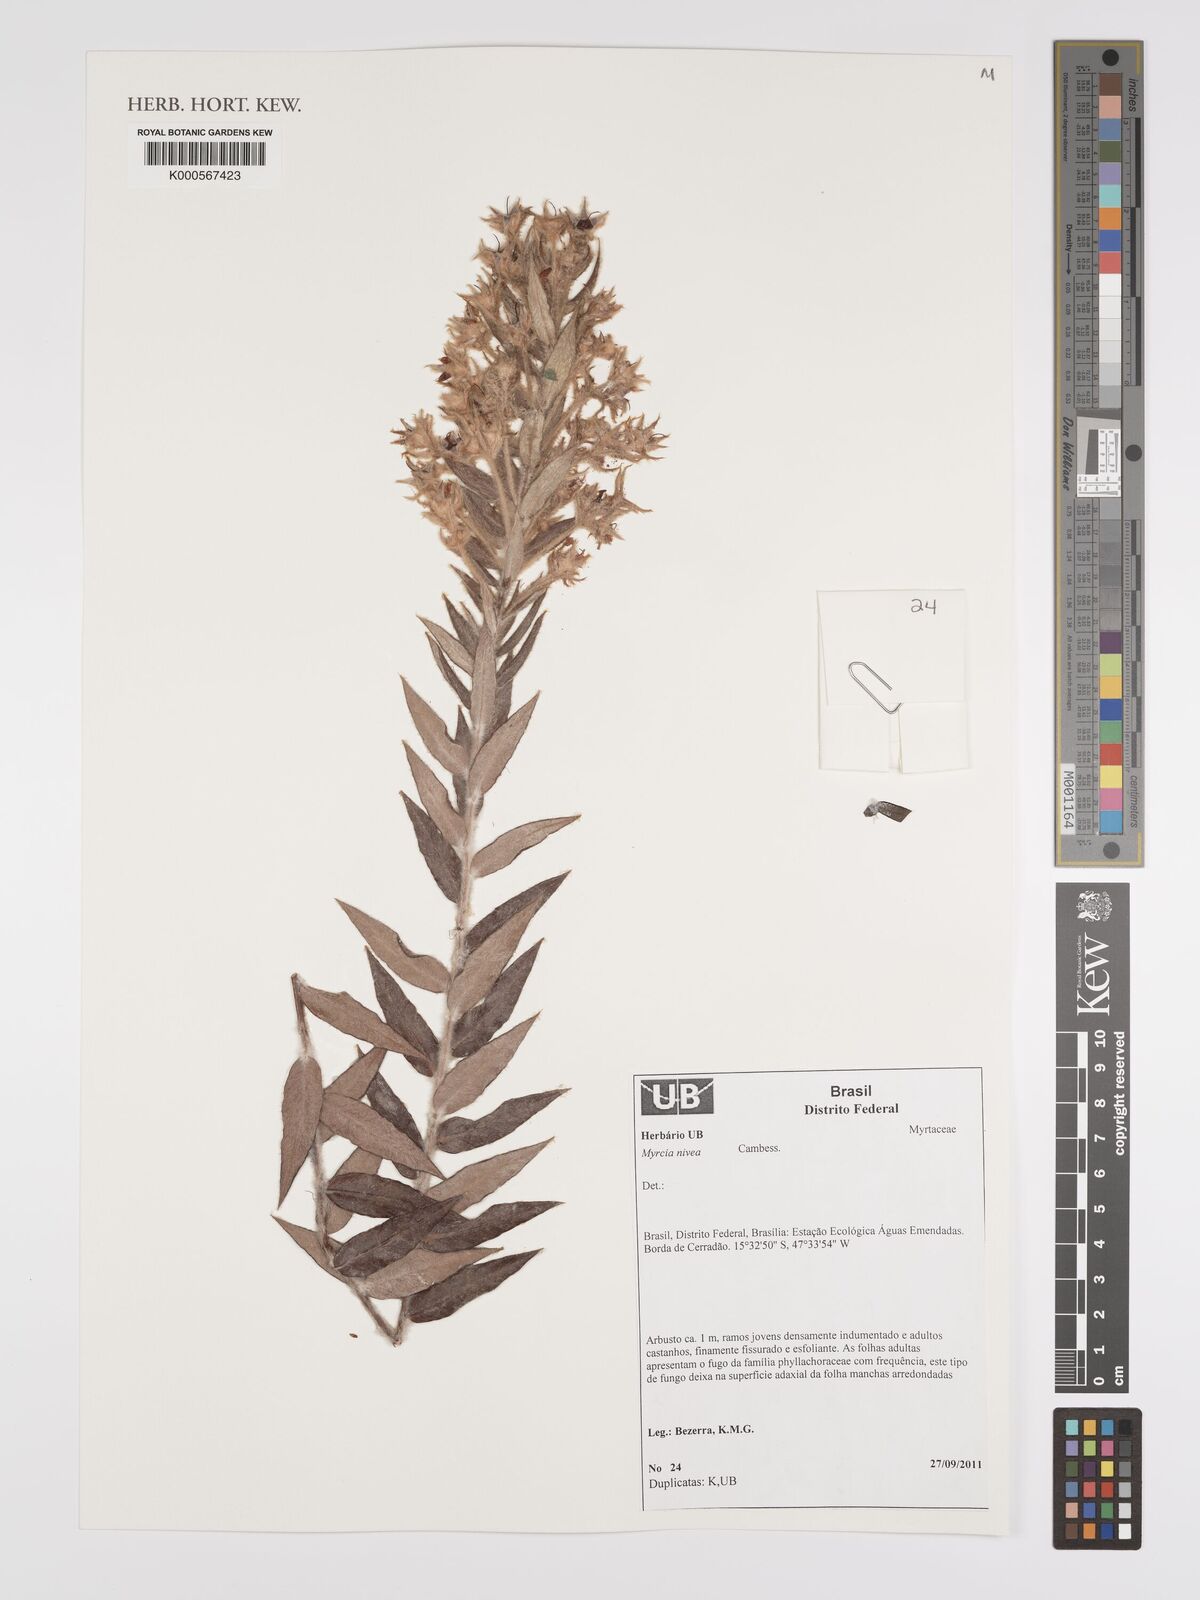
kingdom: Plantae
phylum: Tracheophyta
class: Magnoliopsida
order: Myrtales
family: Myrtaceae
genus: Myrcia
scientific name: Myrcia nivea
